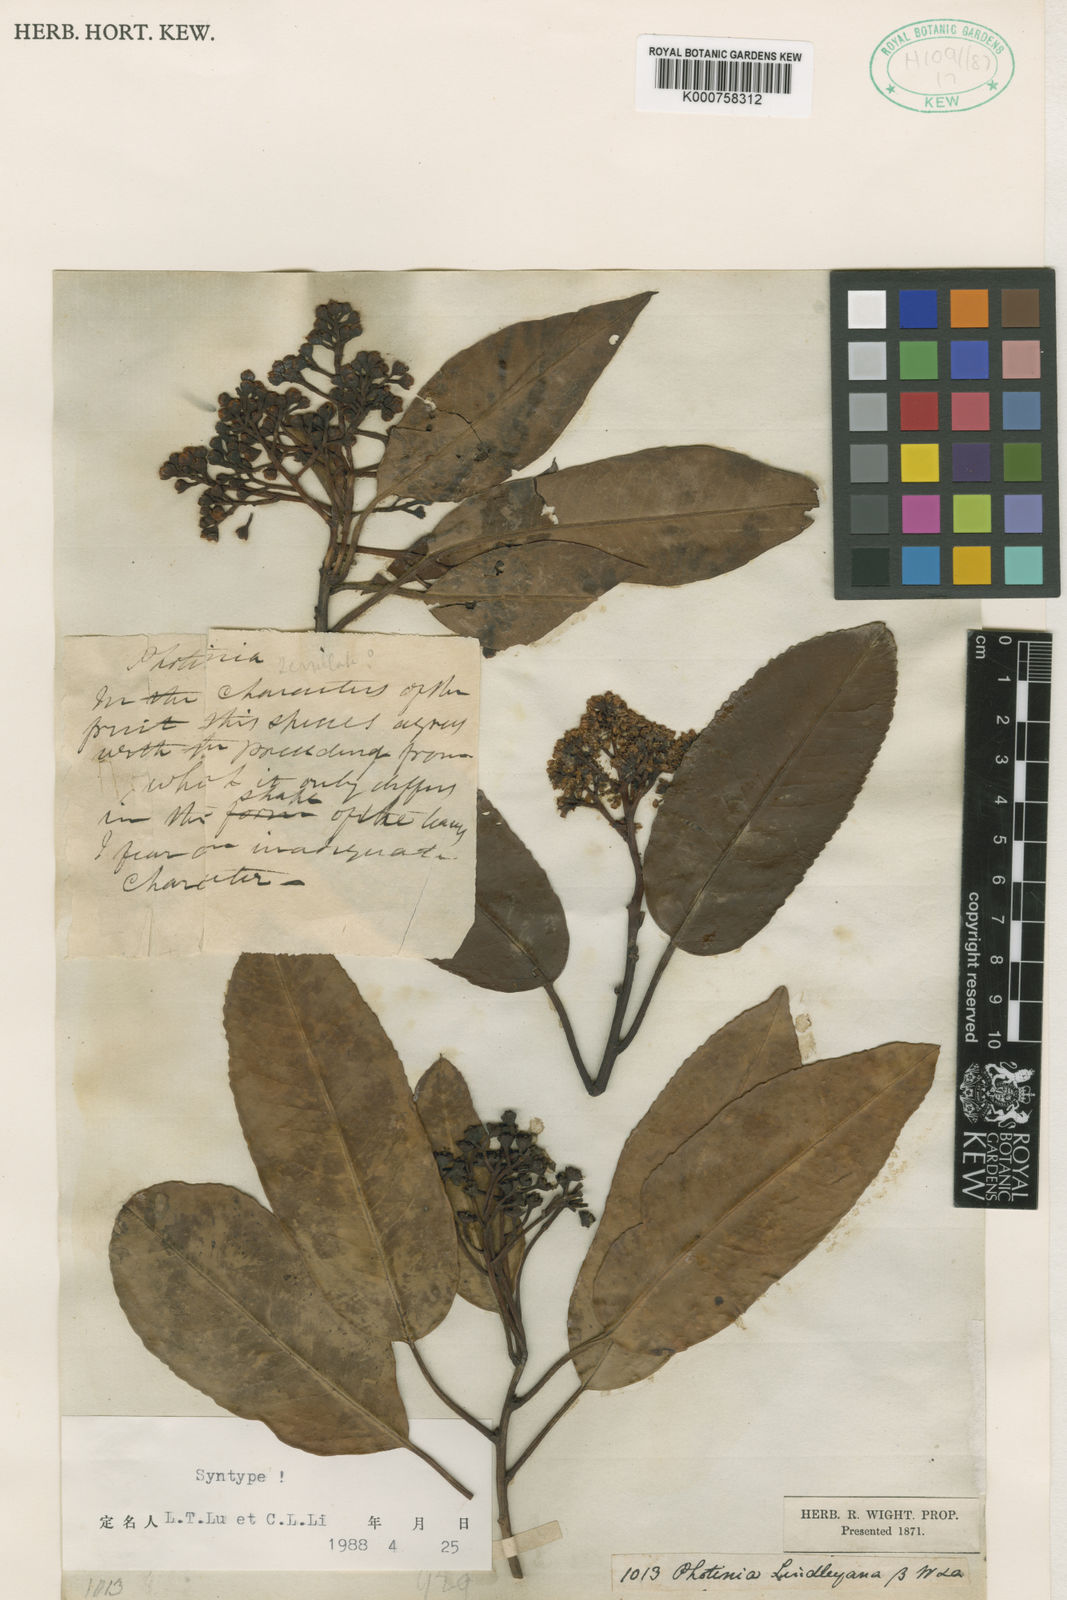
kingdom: Plantae
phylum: Tracheophyta
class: Magnoliopsida
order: Rosales
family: Rosaceae
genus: Photinia
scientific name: Photinia lindleyana
